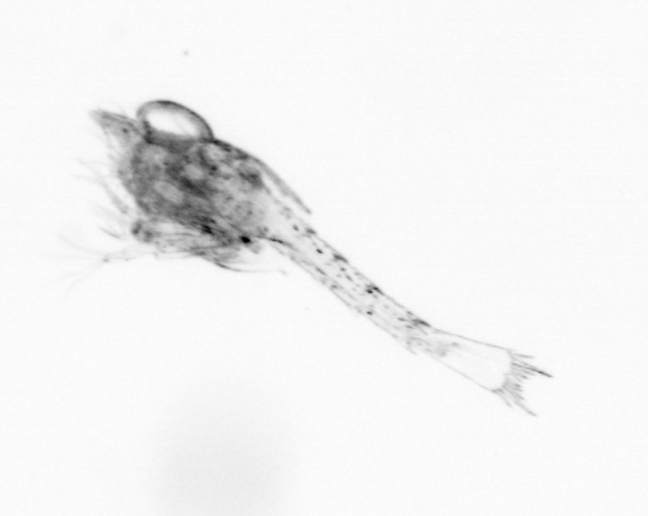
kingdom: Animalia
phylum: Arthropoda
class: Copepoda
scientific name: Copepoda
